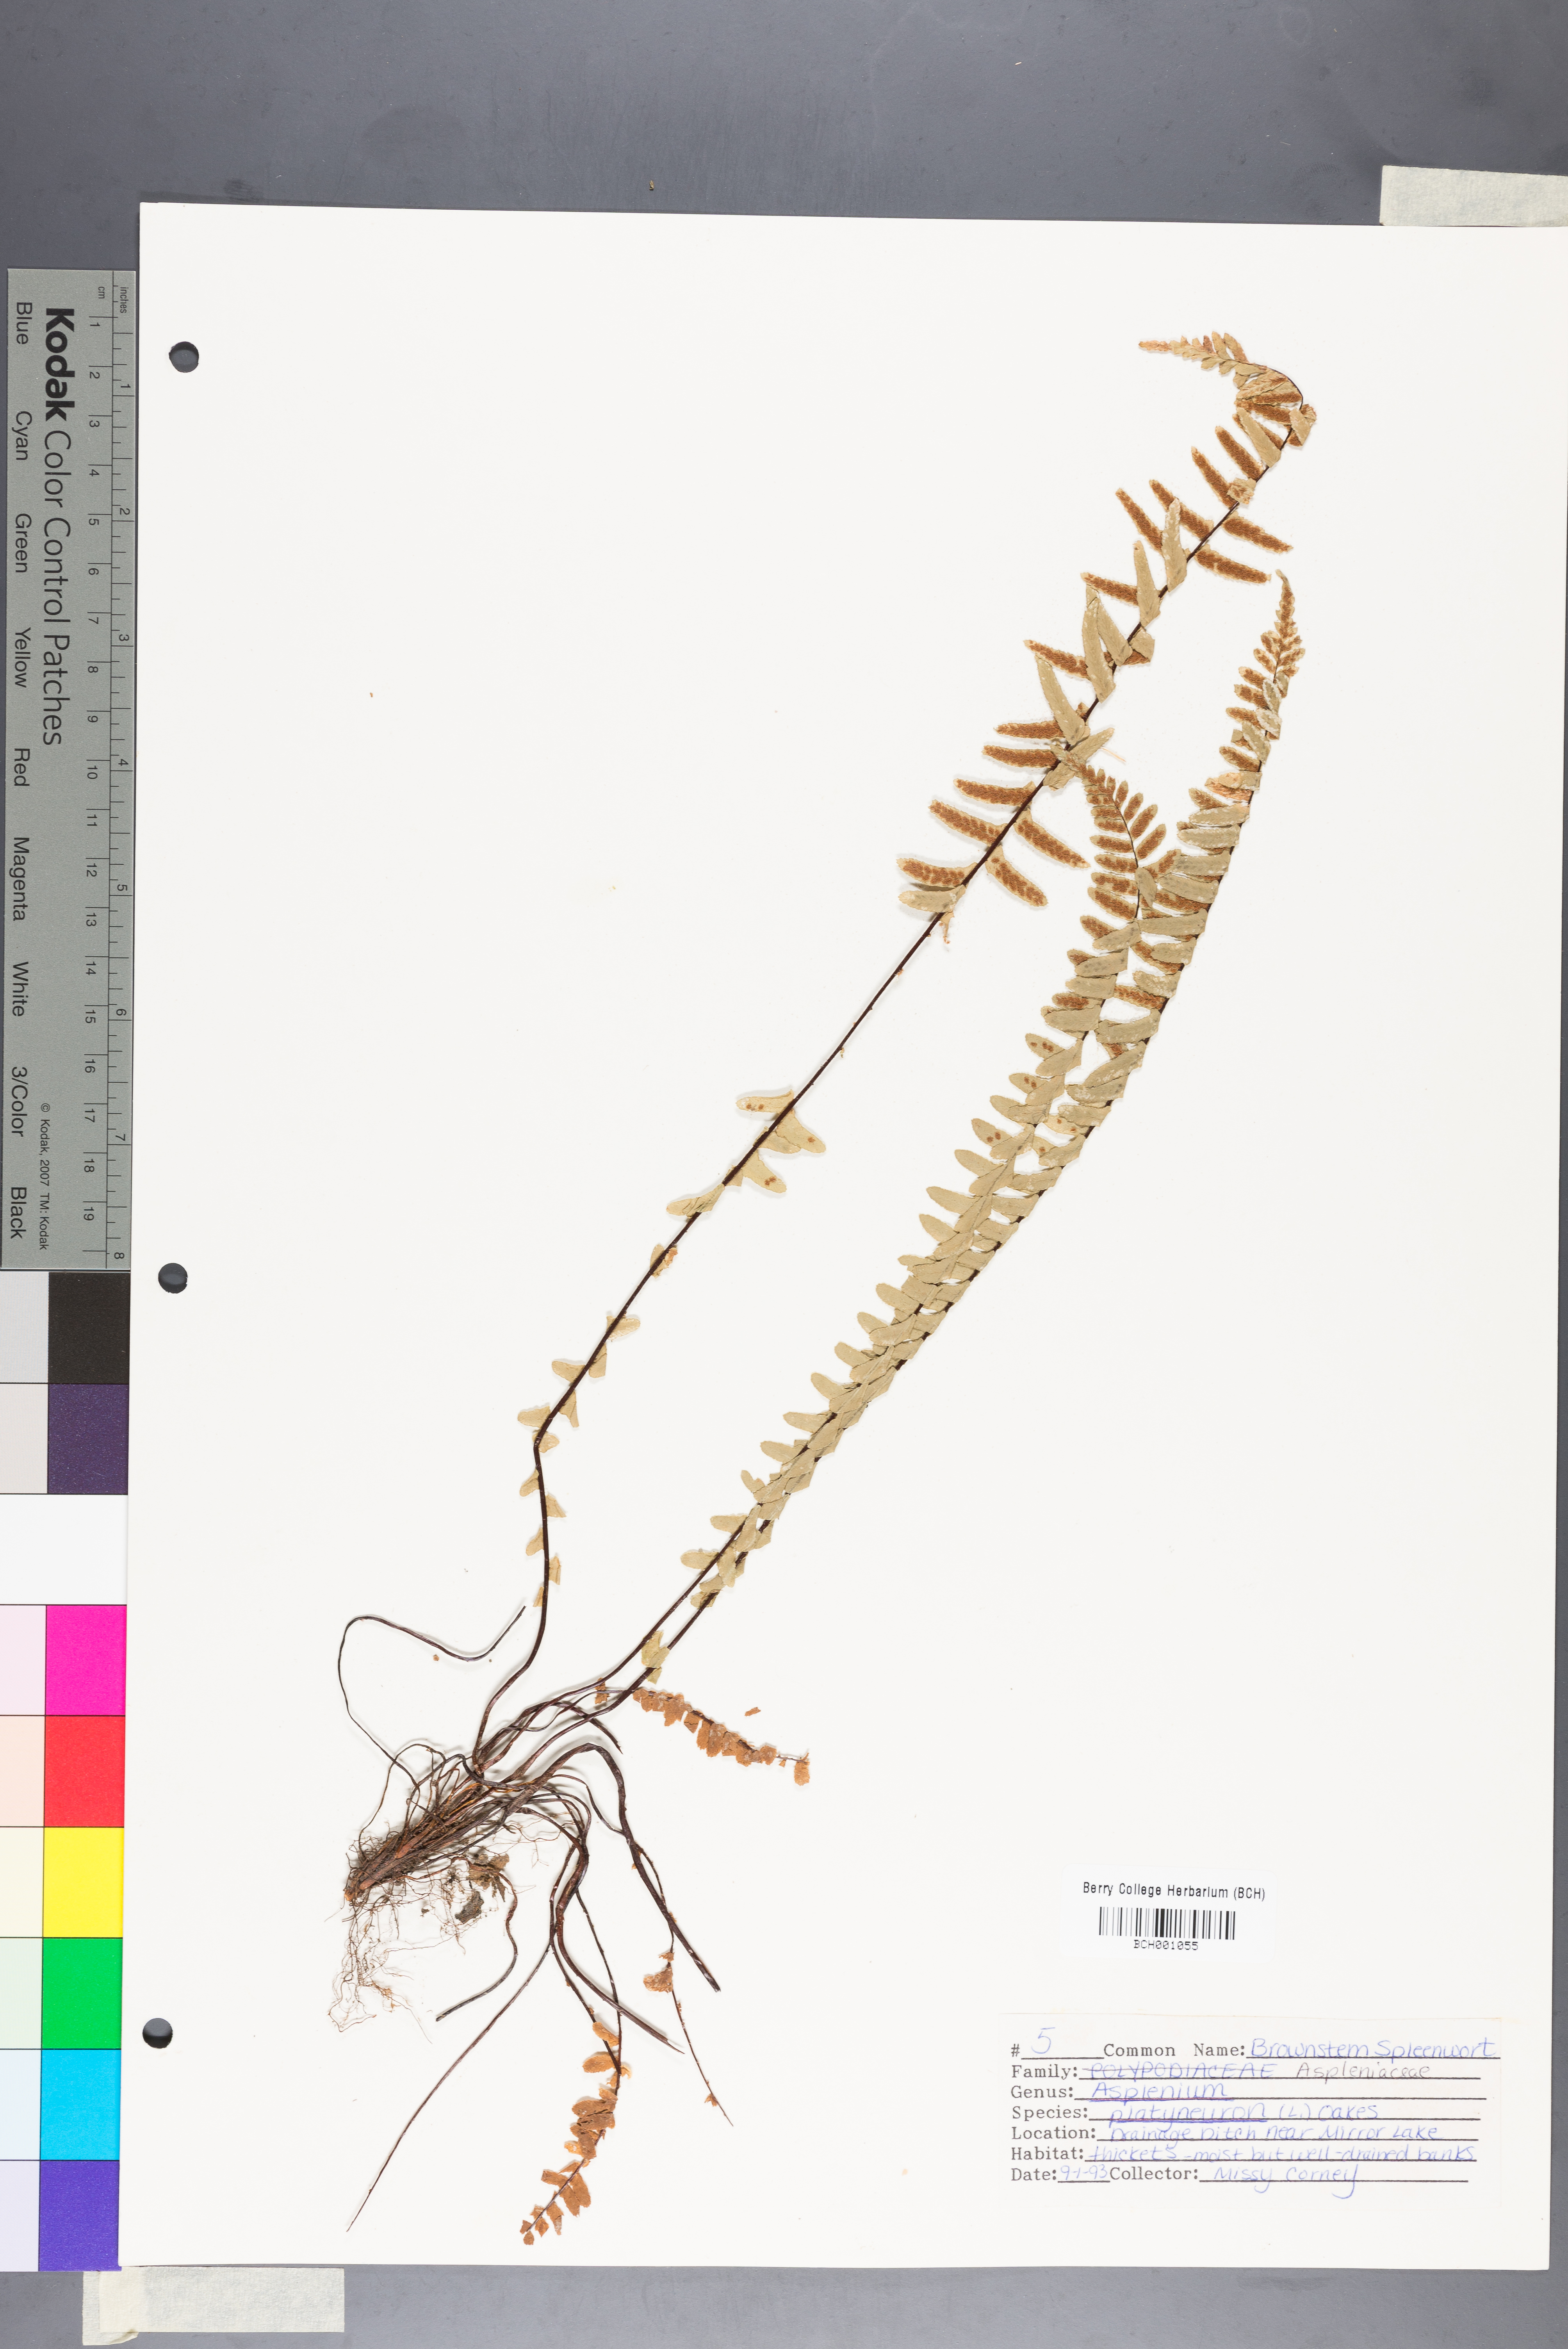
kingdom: Plantae
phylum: Tracheophyta
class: Polypodiopsida
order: Polypodiales
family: Aspleniaceae
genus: Asplenium
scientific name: Asplenium platyneuron
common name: Ebony spleenwort
